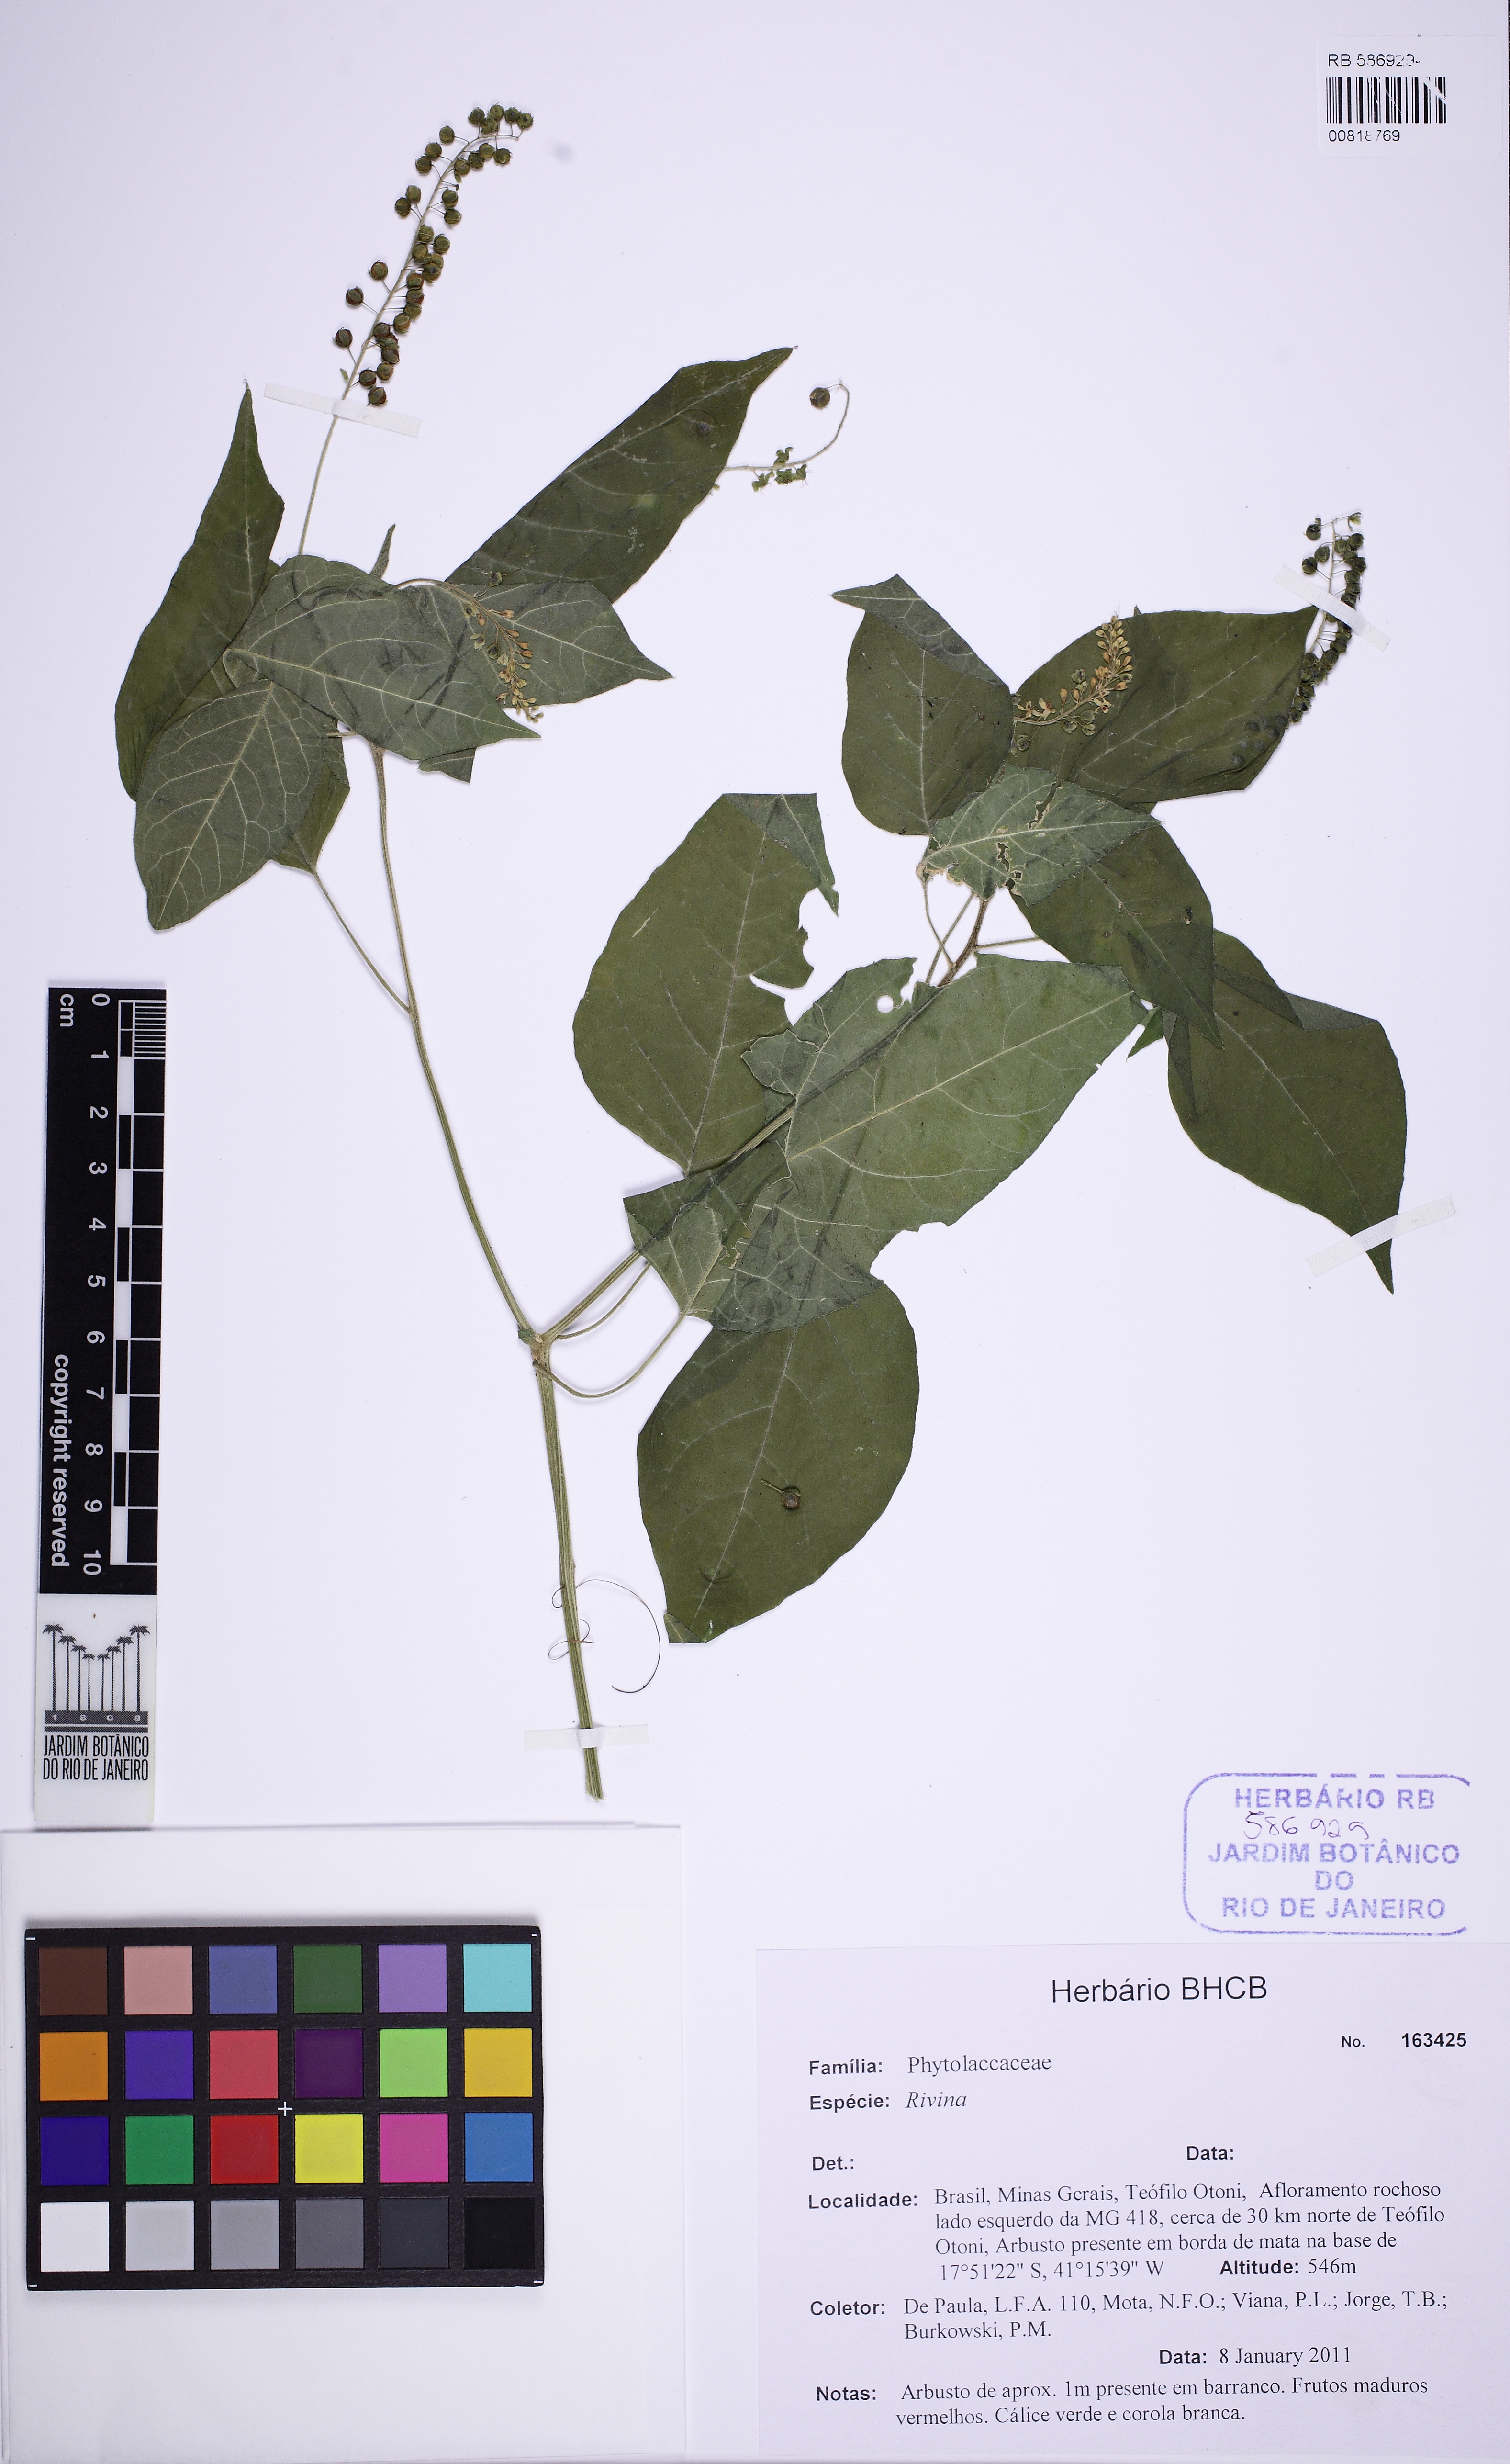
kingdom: Plantae
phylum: Tracheophyta
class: Magnoliopsida
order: Caryophyllales
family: Phytolaccaceae
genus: Rivina
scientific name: Rivina
